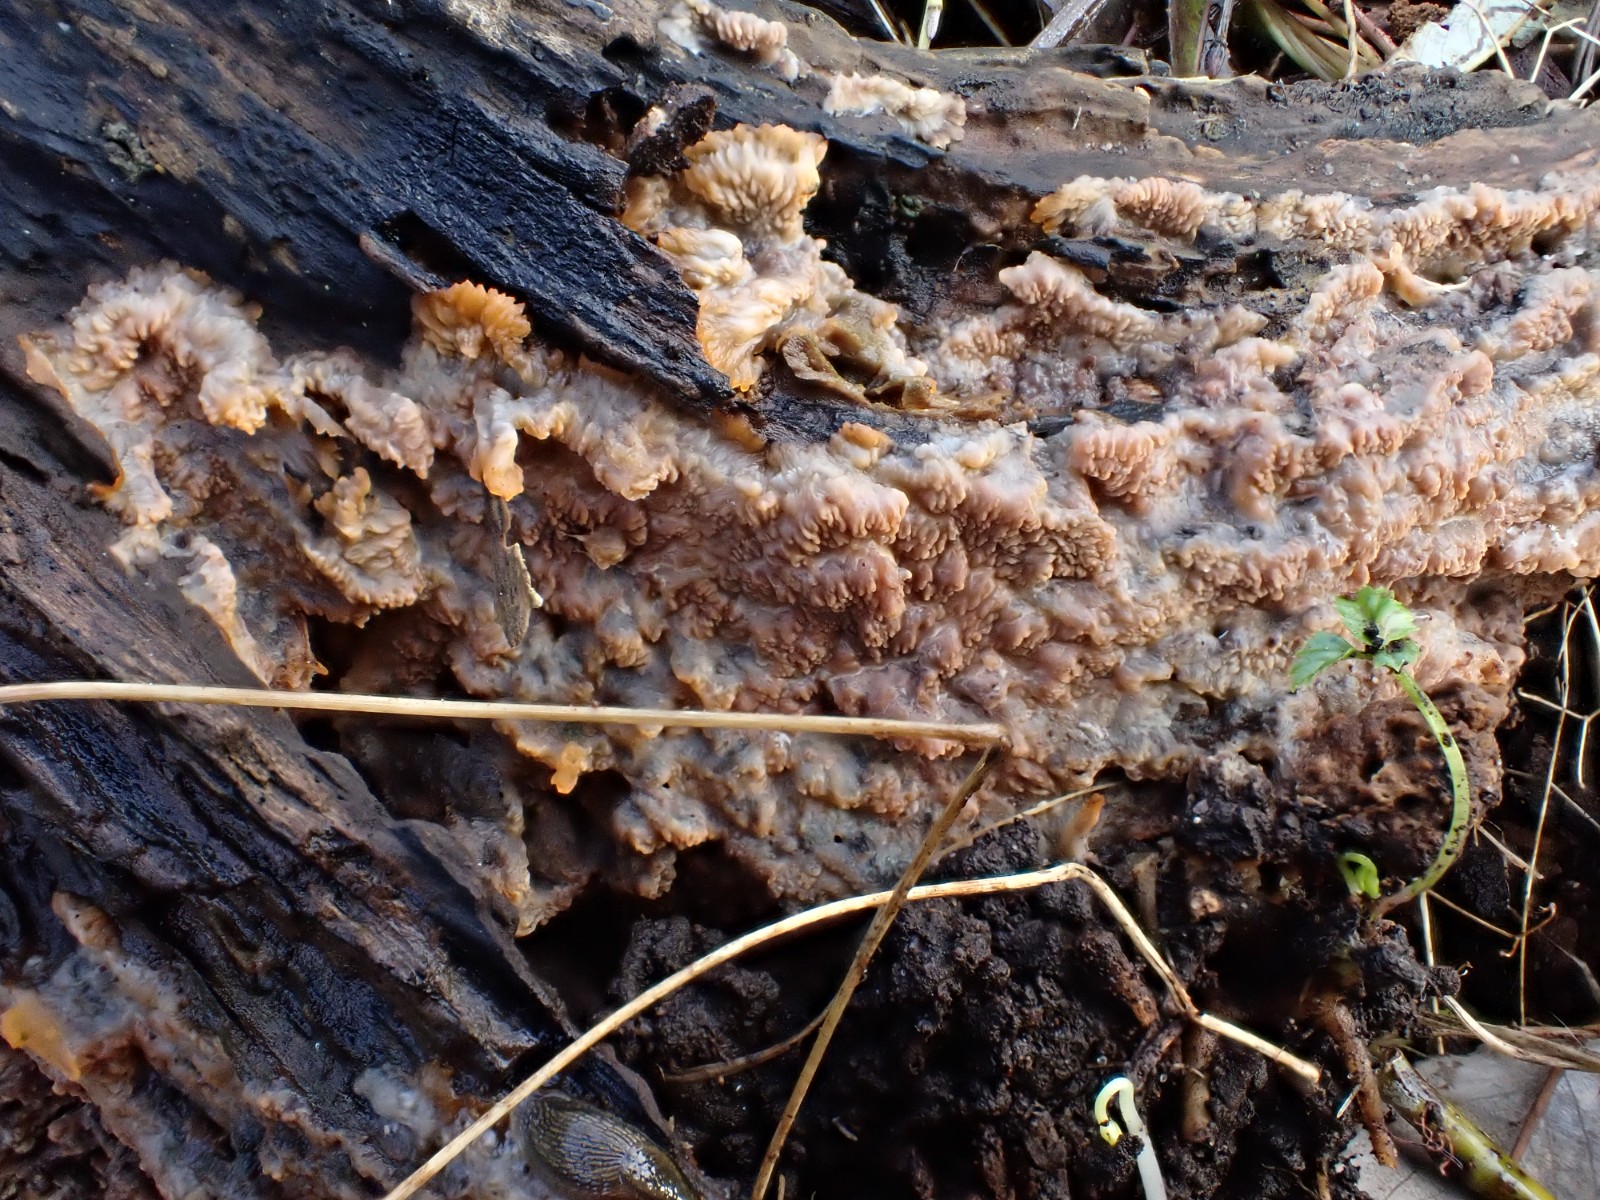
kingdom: Fungi
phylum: Basidiomycota
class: Agaricomycetes
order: Polyporales
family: Meruliaceae
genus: Phlebia
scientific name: Phlebia radiata
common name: stråle-åresvamp
